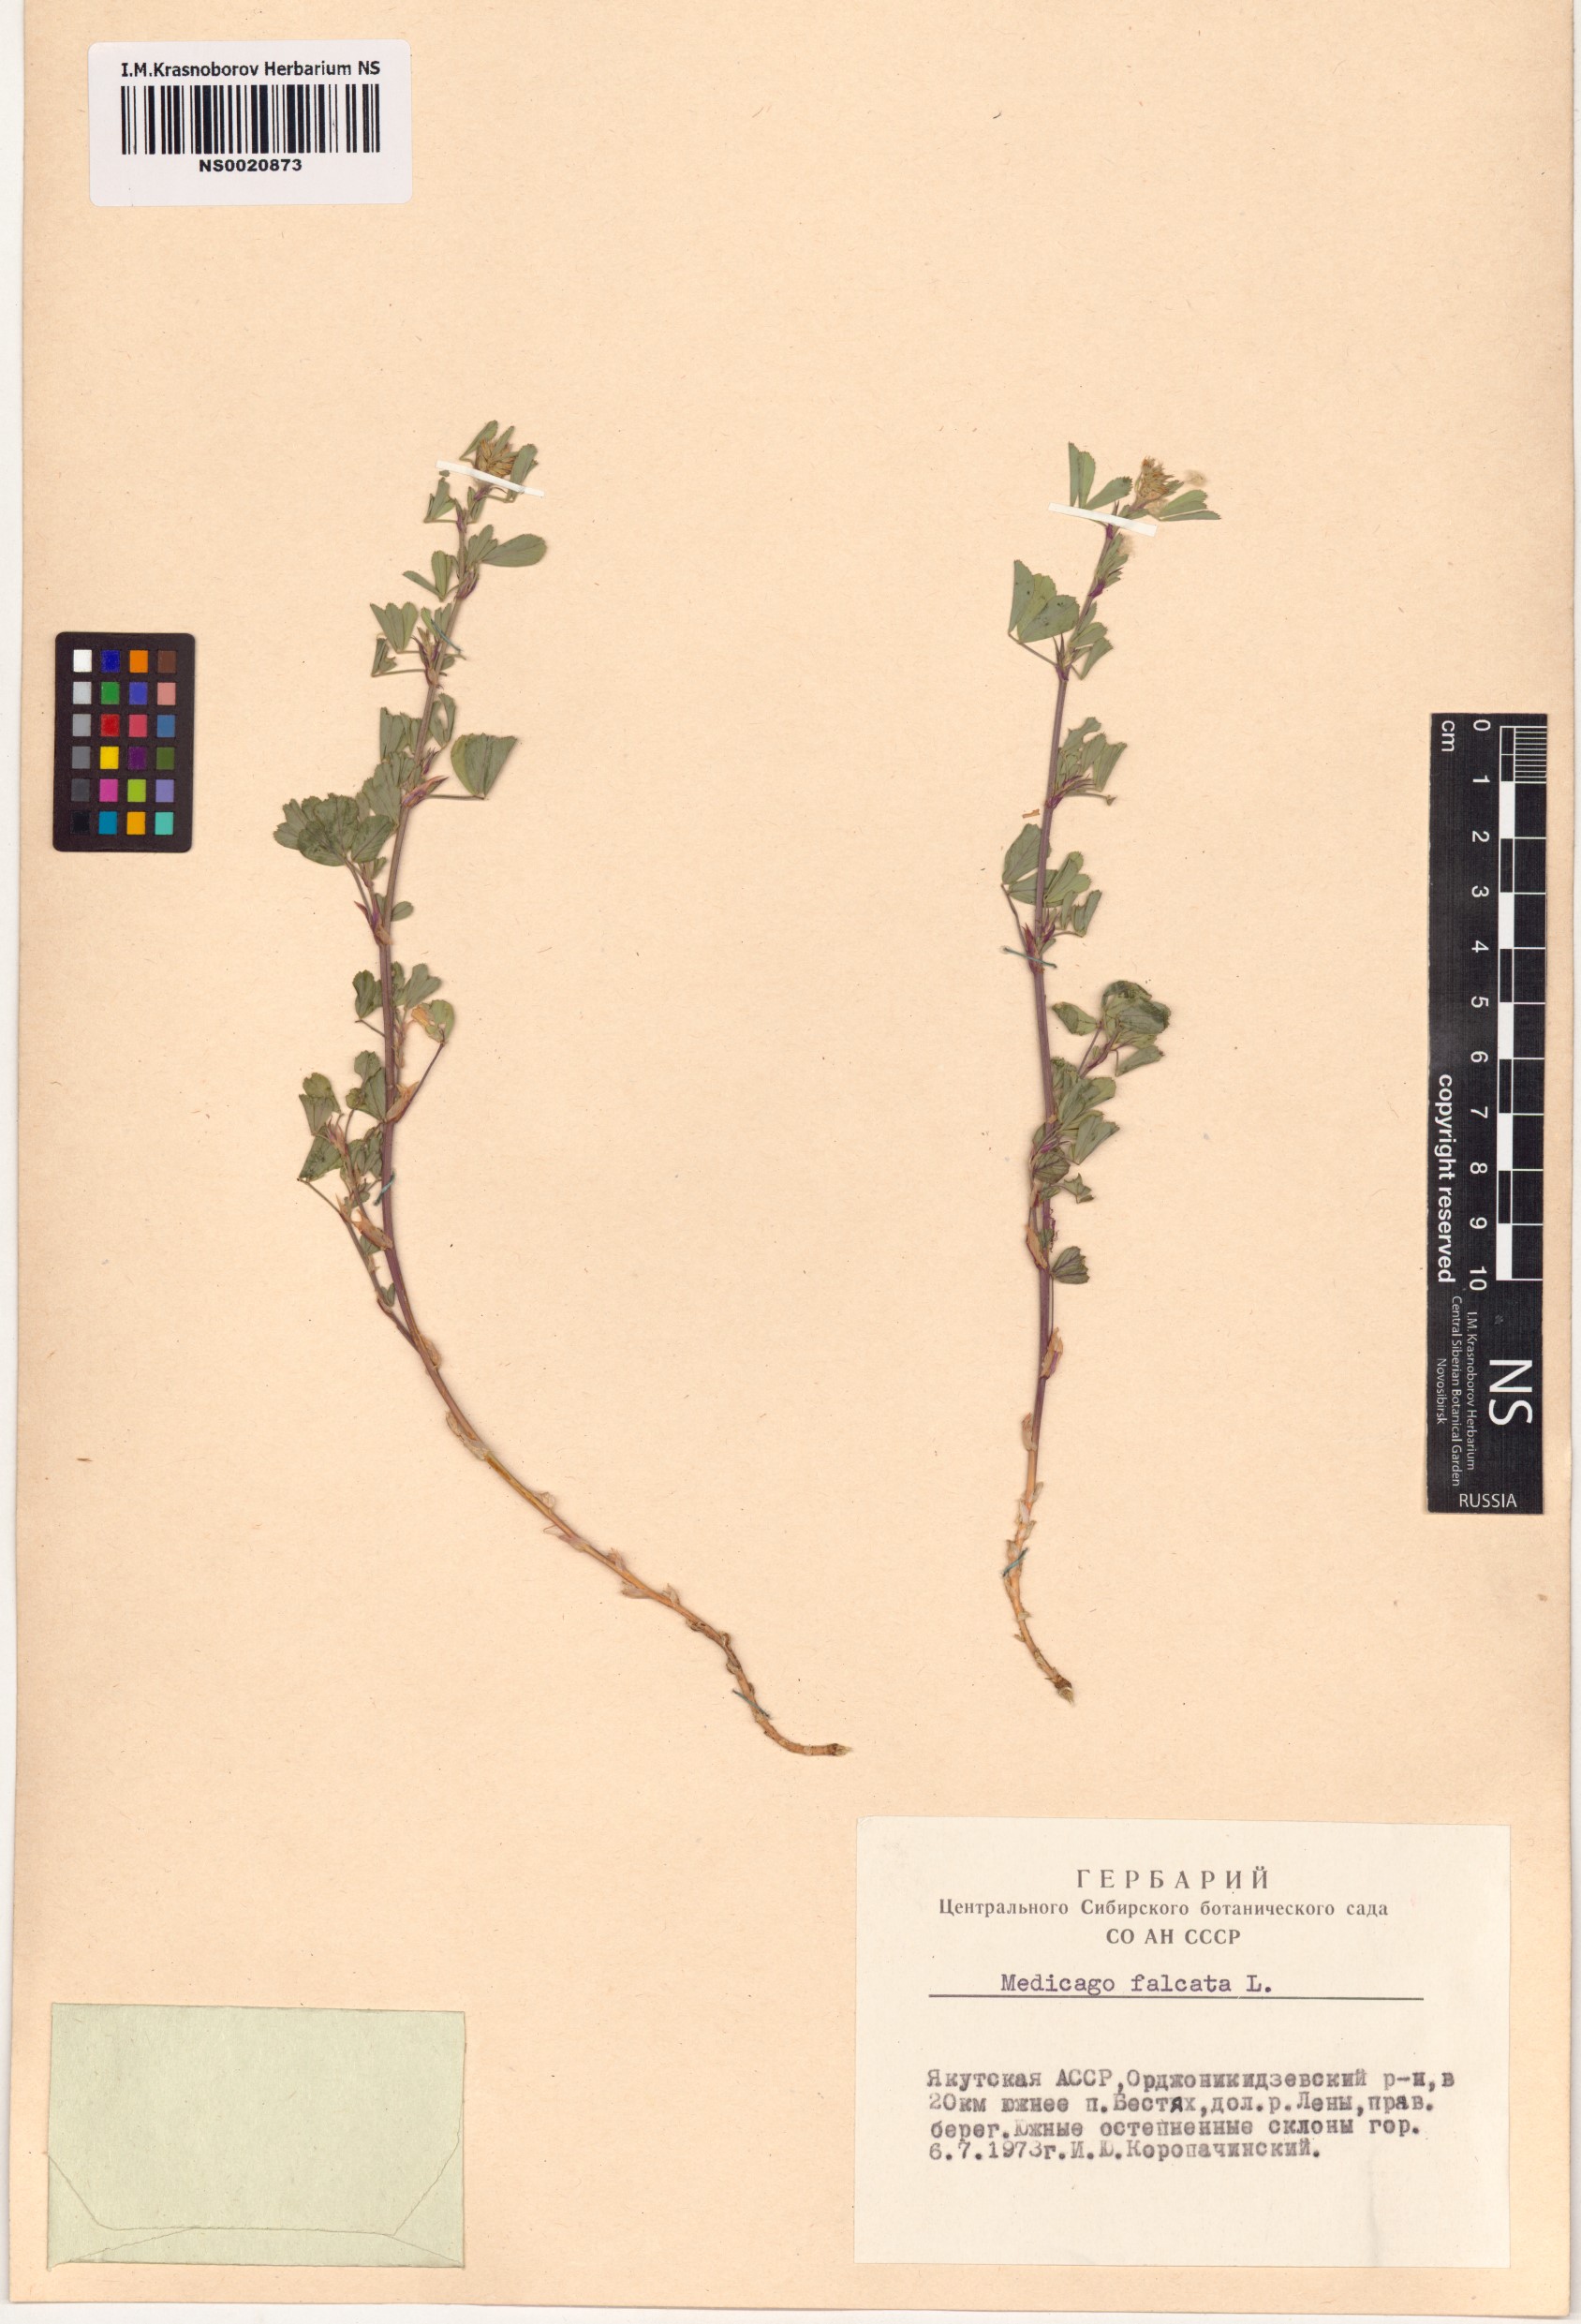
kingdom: Plantae
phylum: Tracheophyta
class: Magnoliopsida
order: Fabales
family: Fabaceae
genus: Medicago
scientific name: Medicago falcata
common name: Sickle medick
